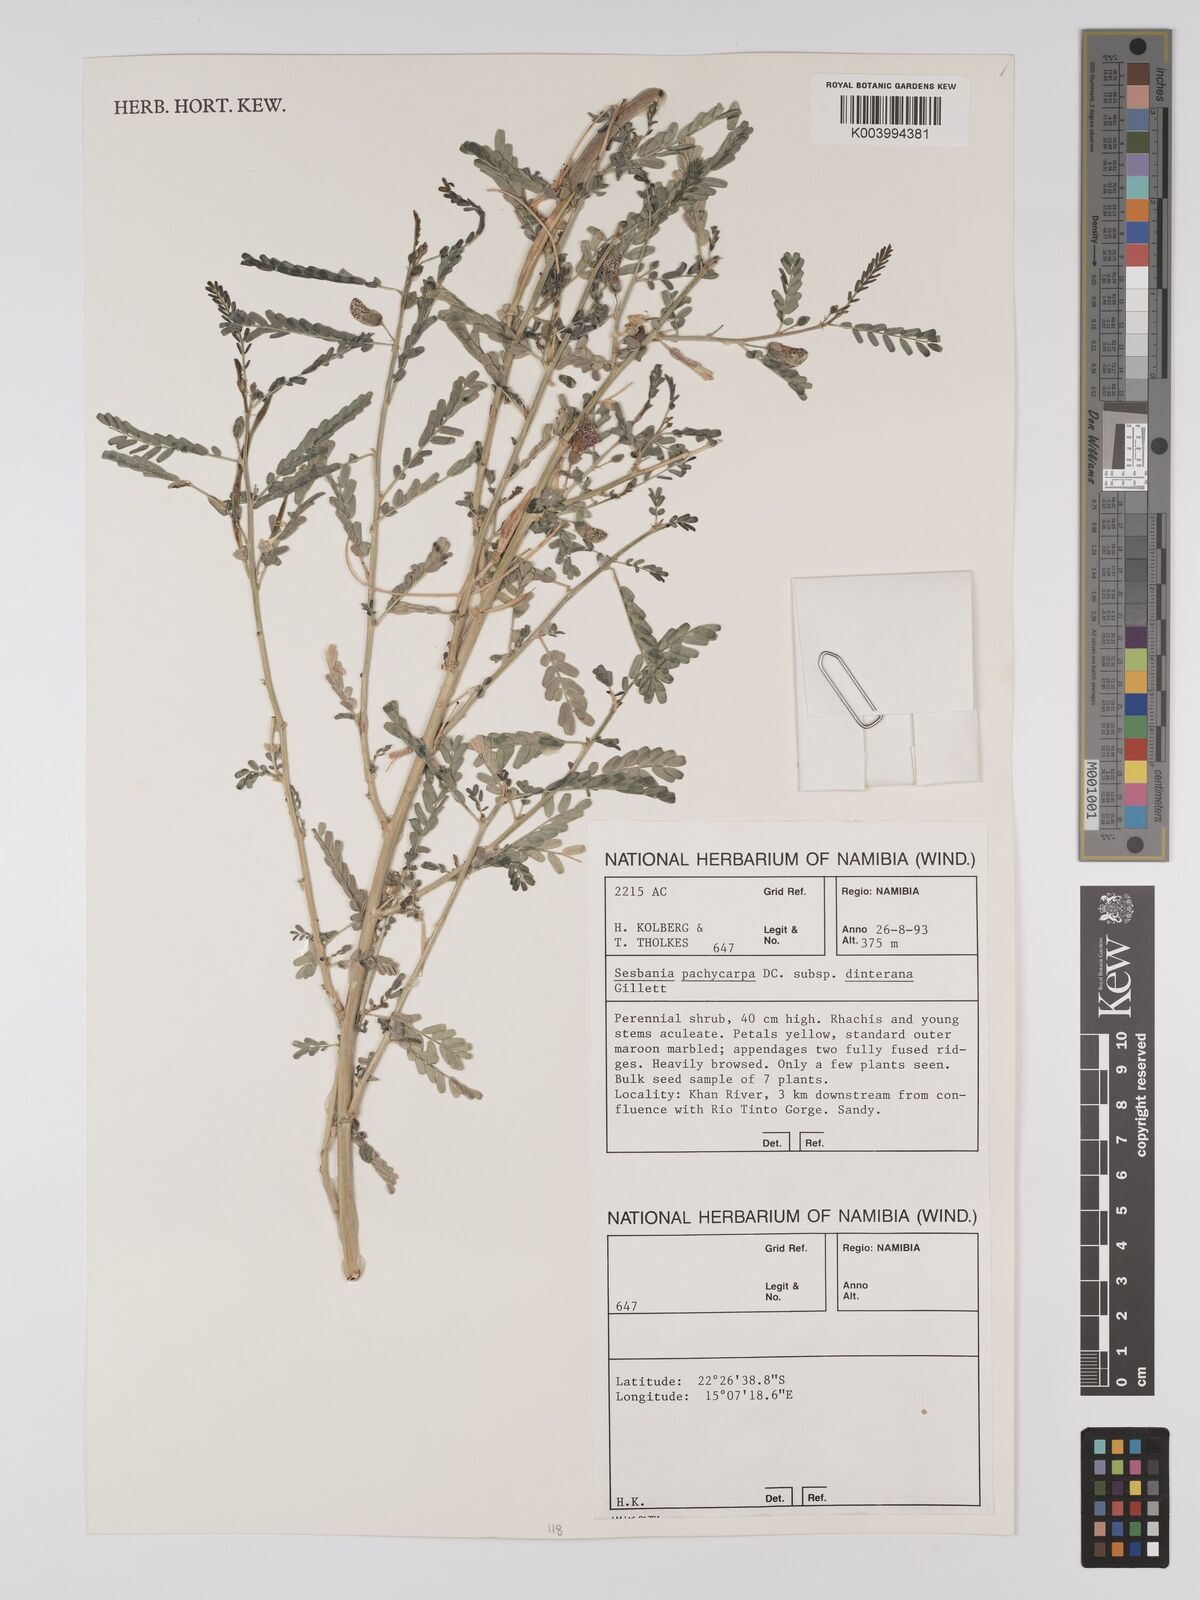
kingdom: Plantae
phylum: Tracheophyta
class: Magnoliopsida
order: Fabales
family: Fabaceae
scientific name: Fabaceae
